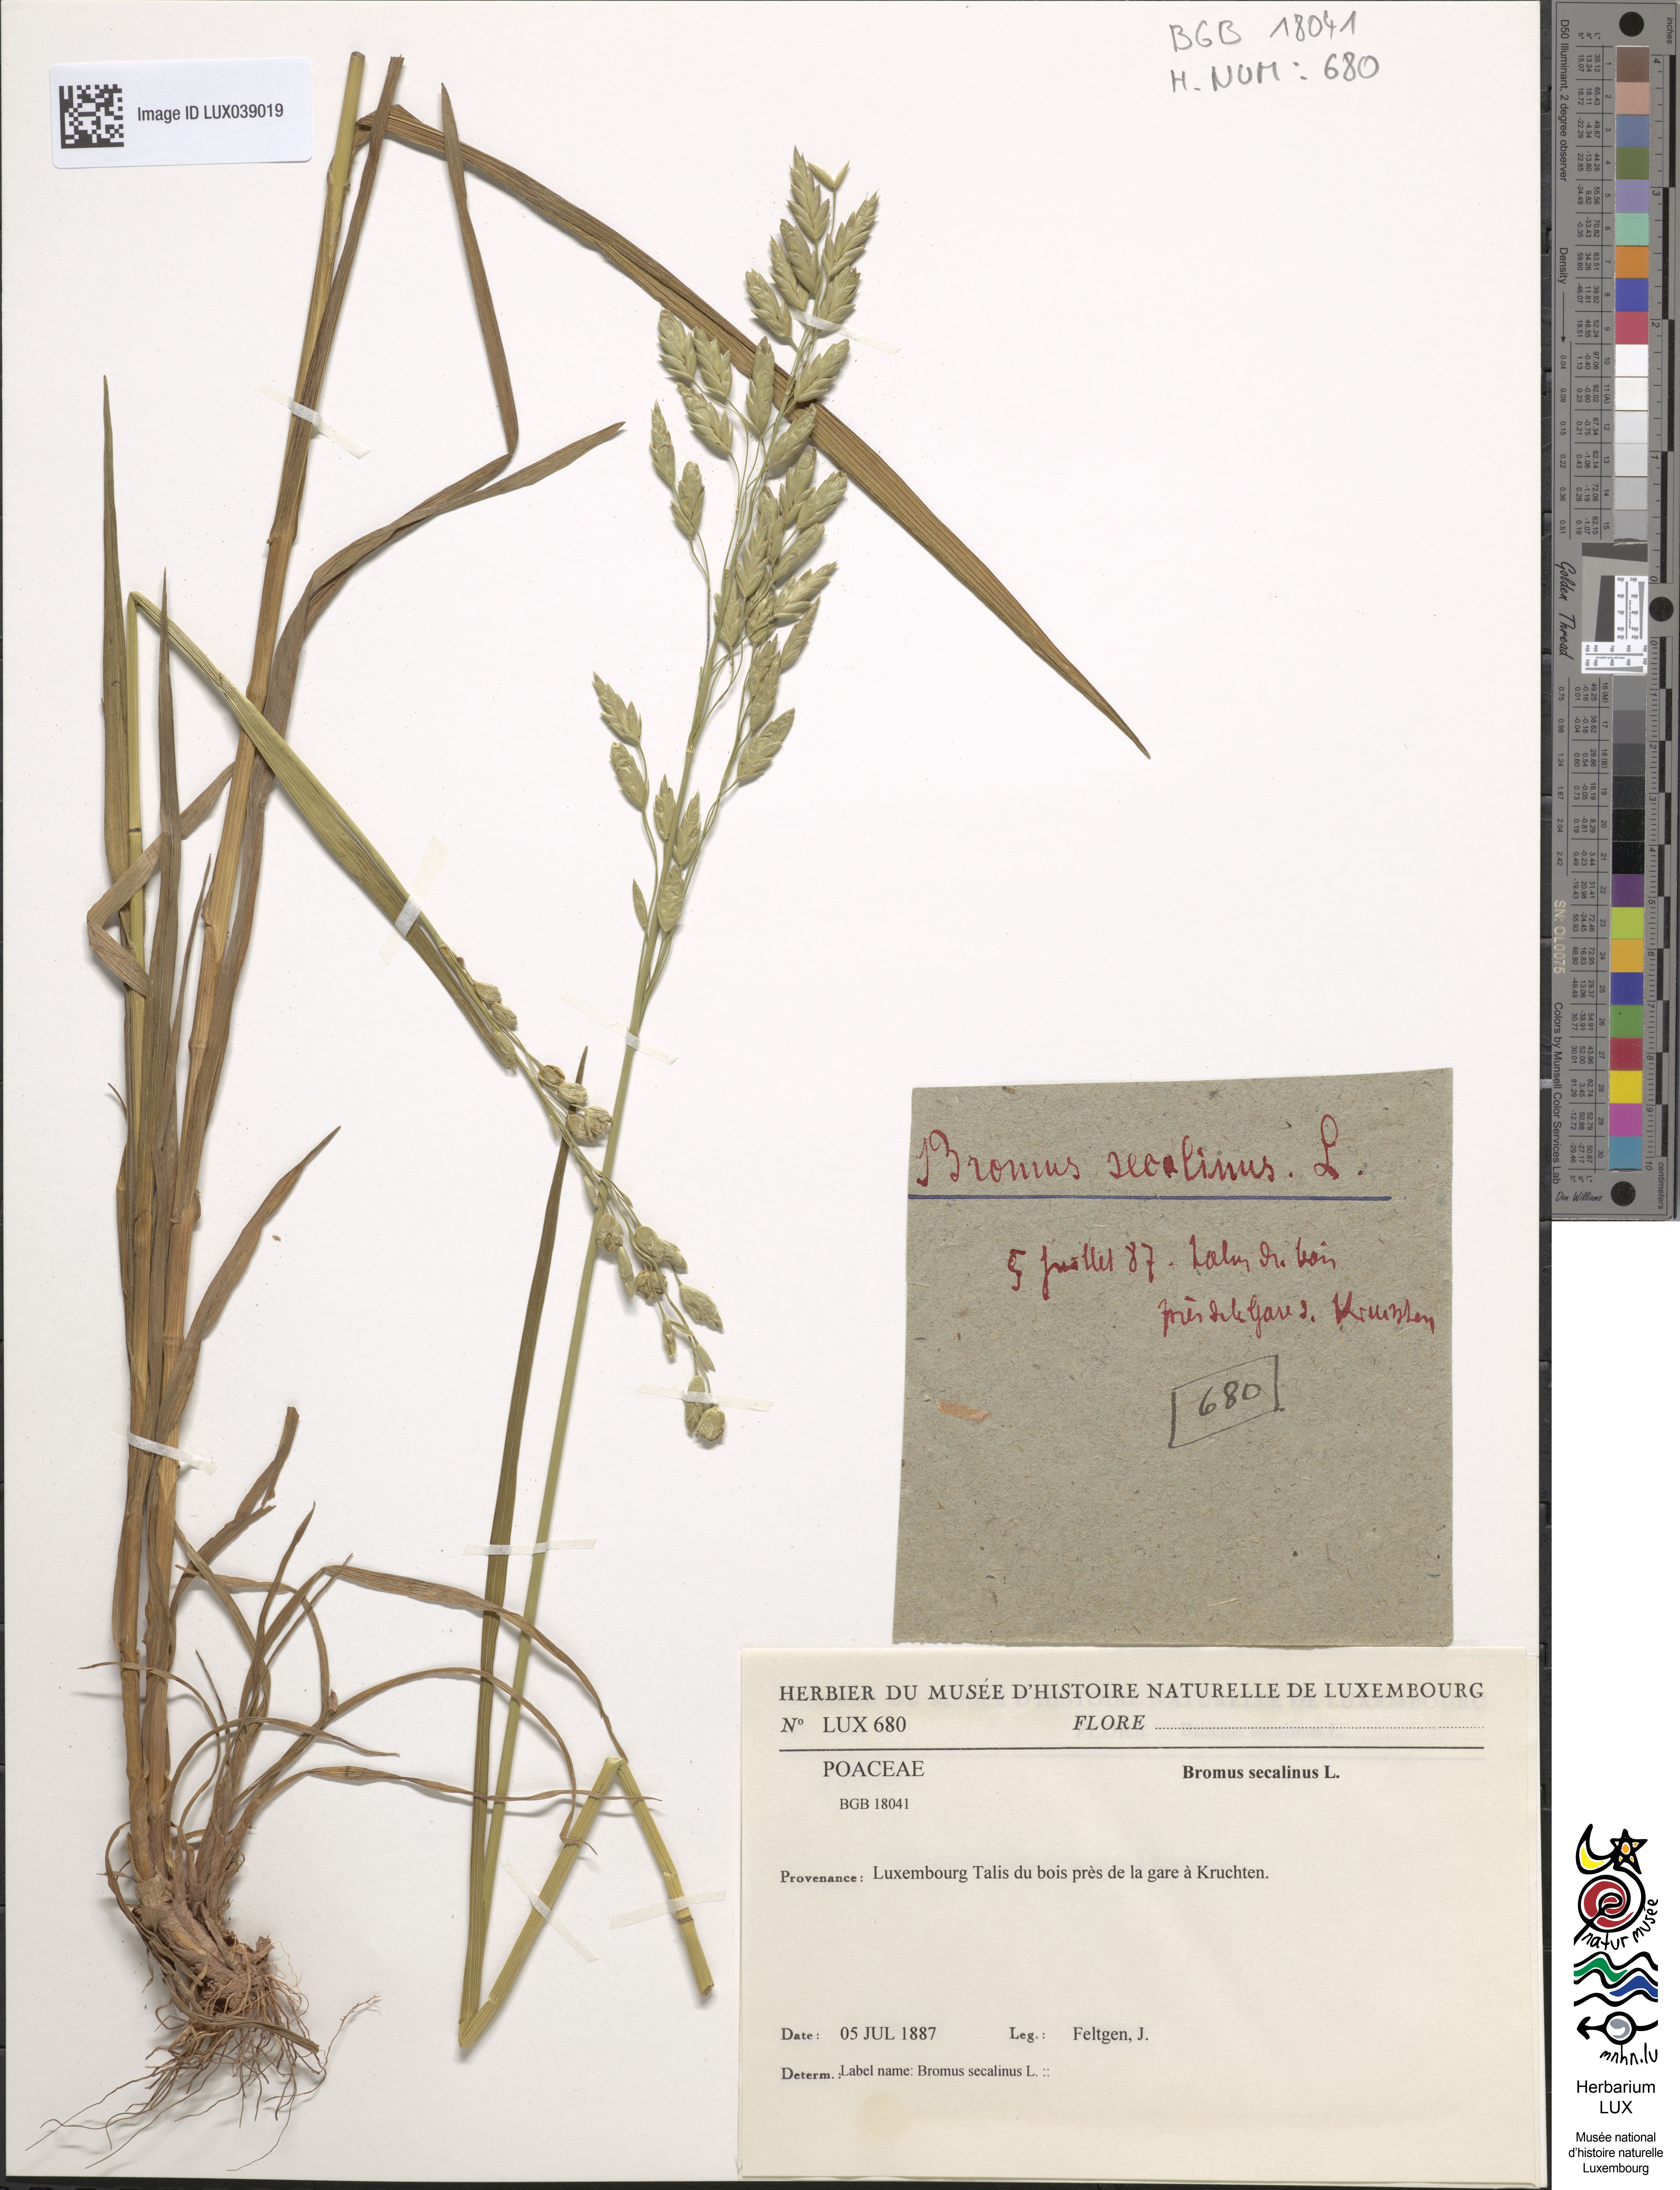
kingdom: Plantae
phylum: Tracheophyta
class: Liliopsida
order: Poales
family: Poaceae
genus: Bromus
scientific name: Bromus secalinus
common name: Rye brome
